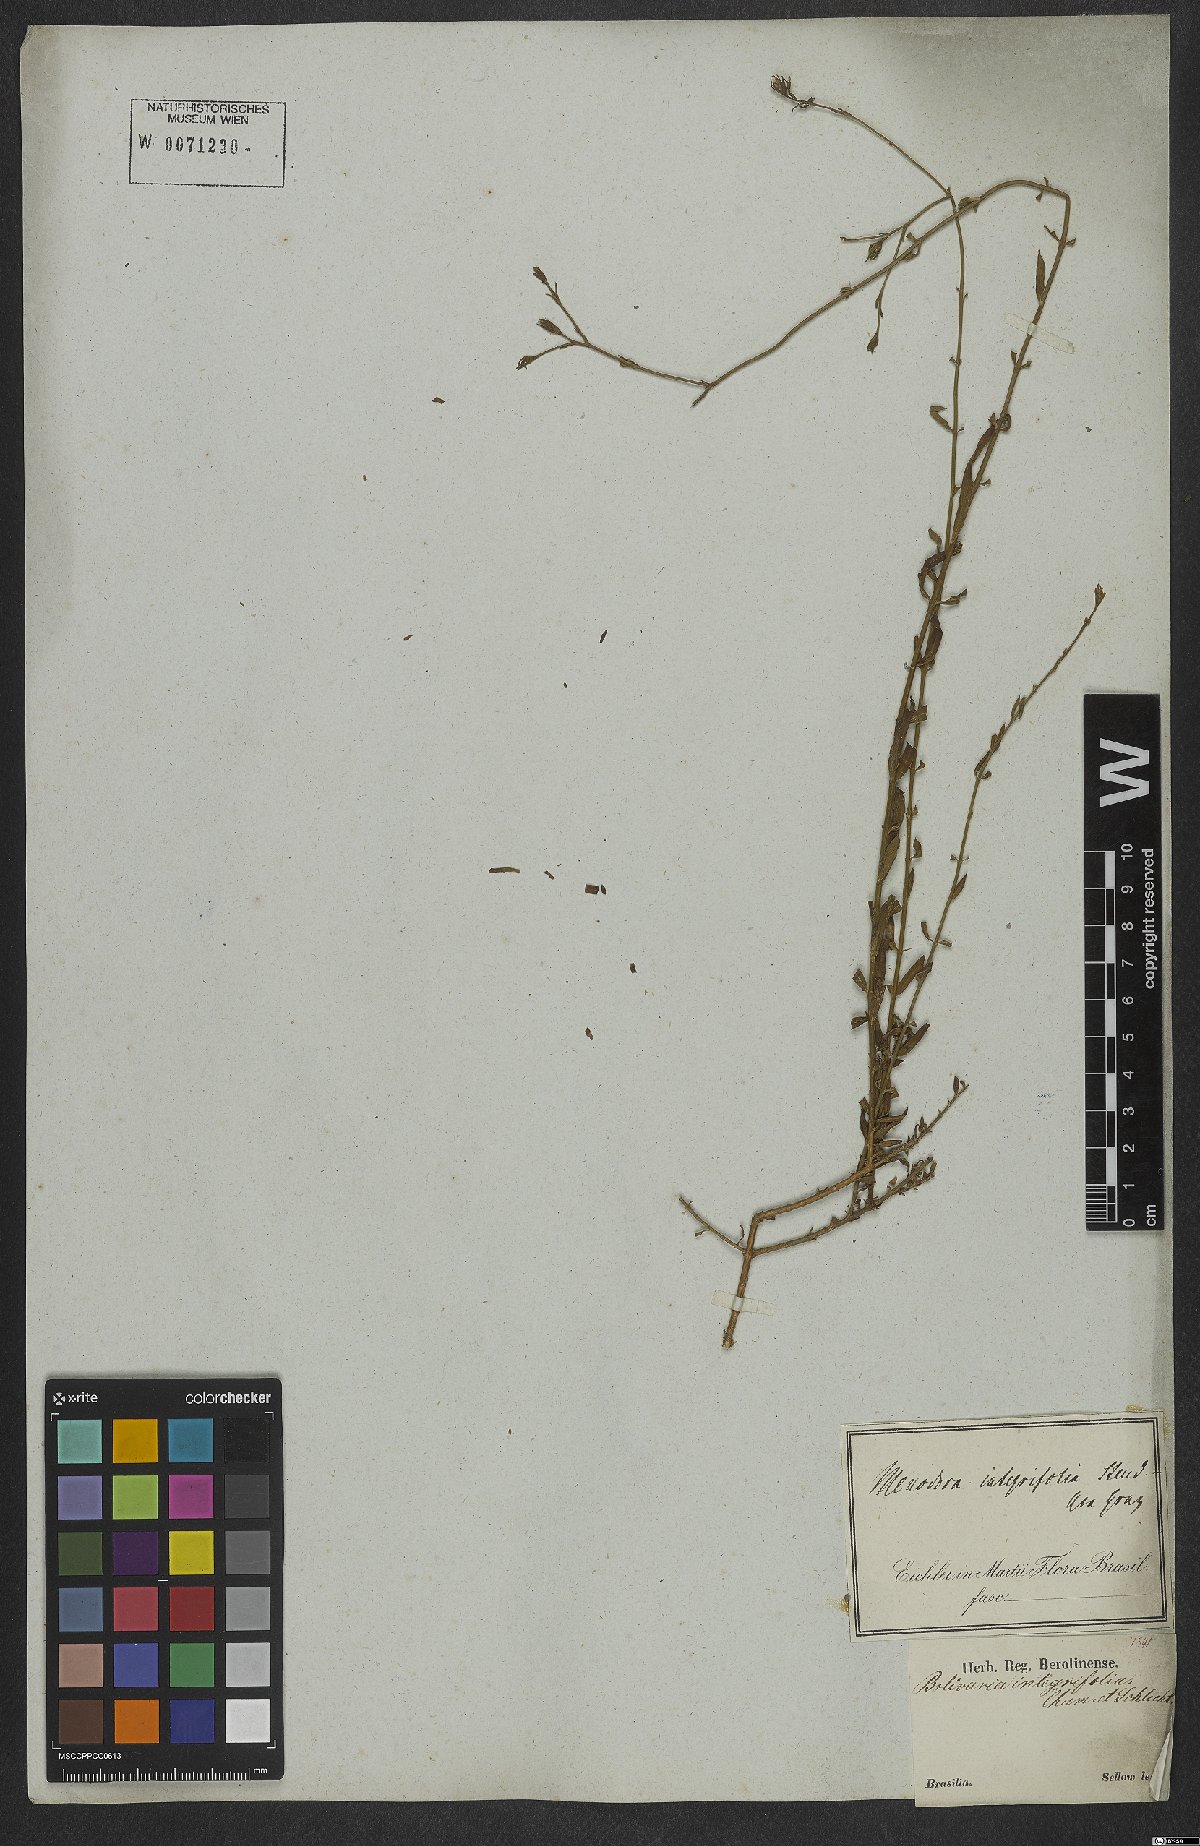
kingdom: Plantae
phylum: Tracheophyta
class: Magnoliopsida
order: Lamiales
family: Oleaceae
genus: Menodora
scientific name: Menodora integrifolia
